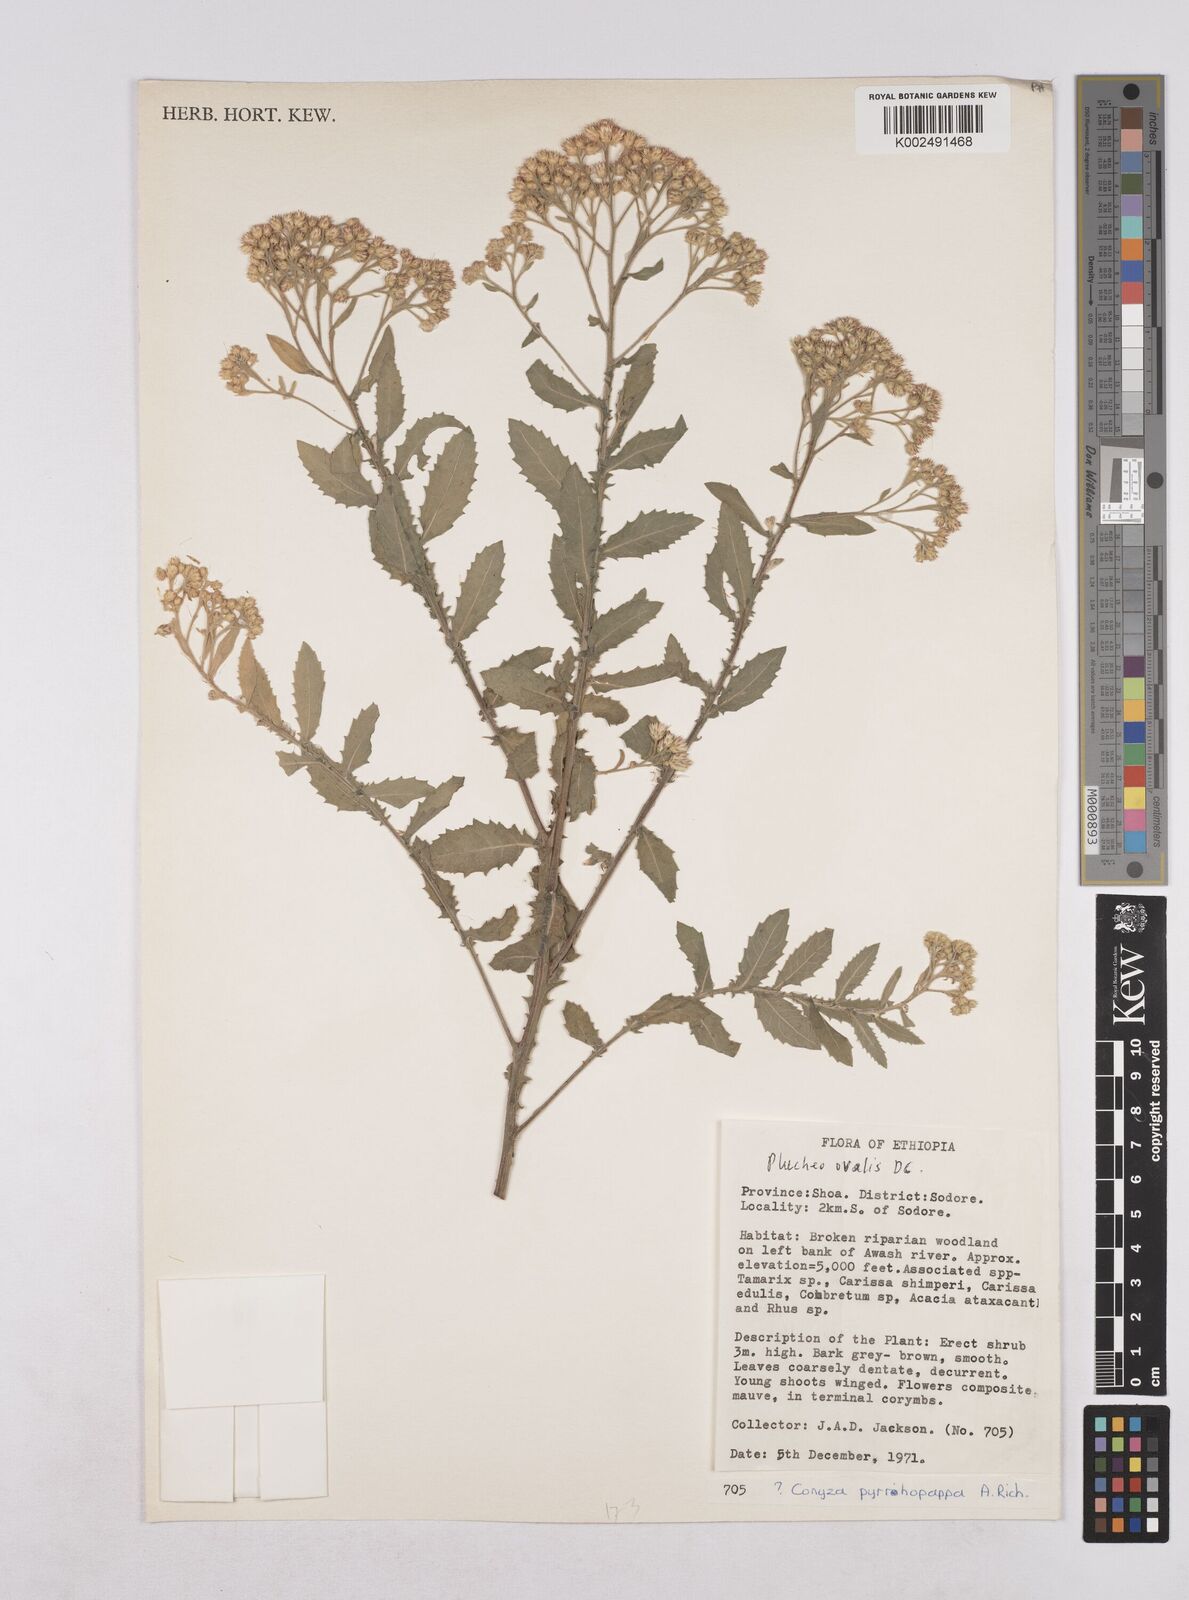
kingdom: Plantae
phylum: Tracheophyta
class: Magnoliopsida
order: Asterales
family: Asteraceae
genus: Pluchea
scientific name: Pluchea ovalis
